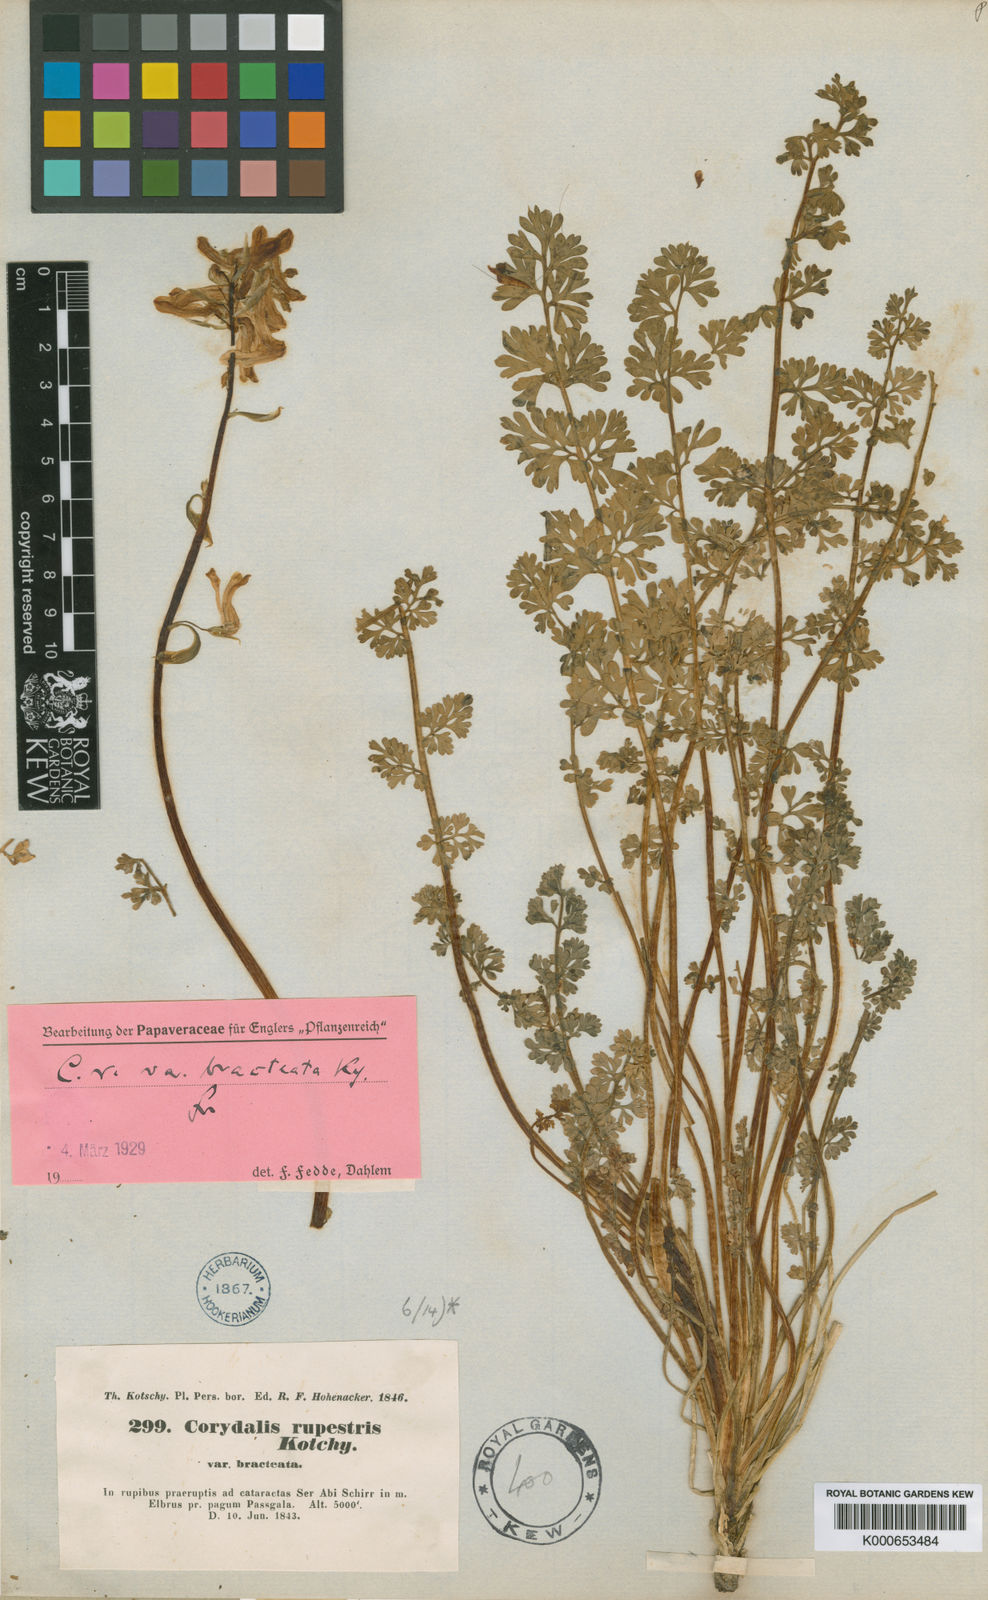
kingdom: Plantae
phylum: Tracheophyta
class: Magnoliopsida
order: Ranunculales
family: Papaveraceae
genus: Corydalis
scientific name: Corydalis
